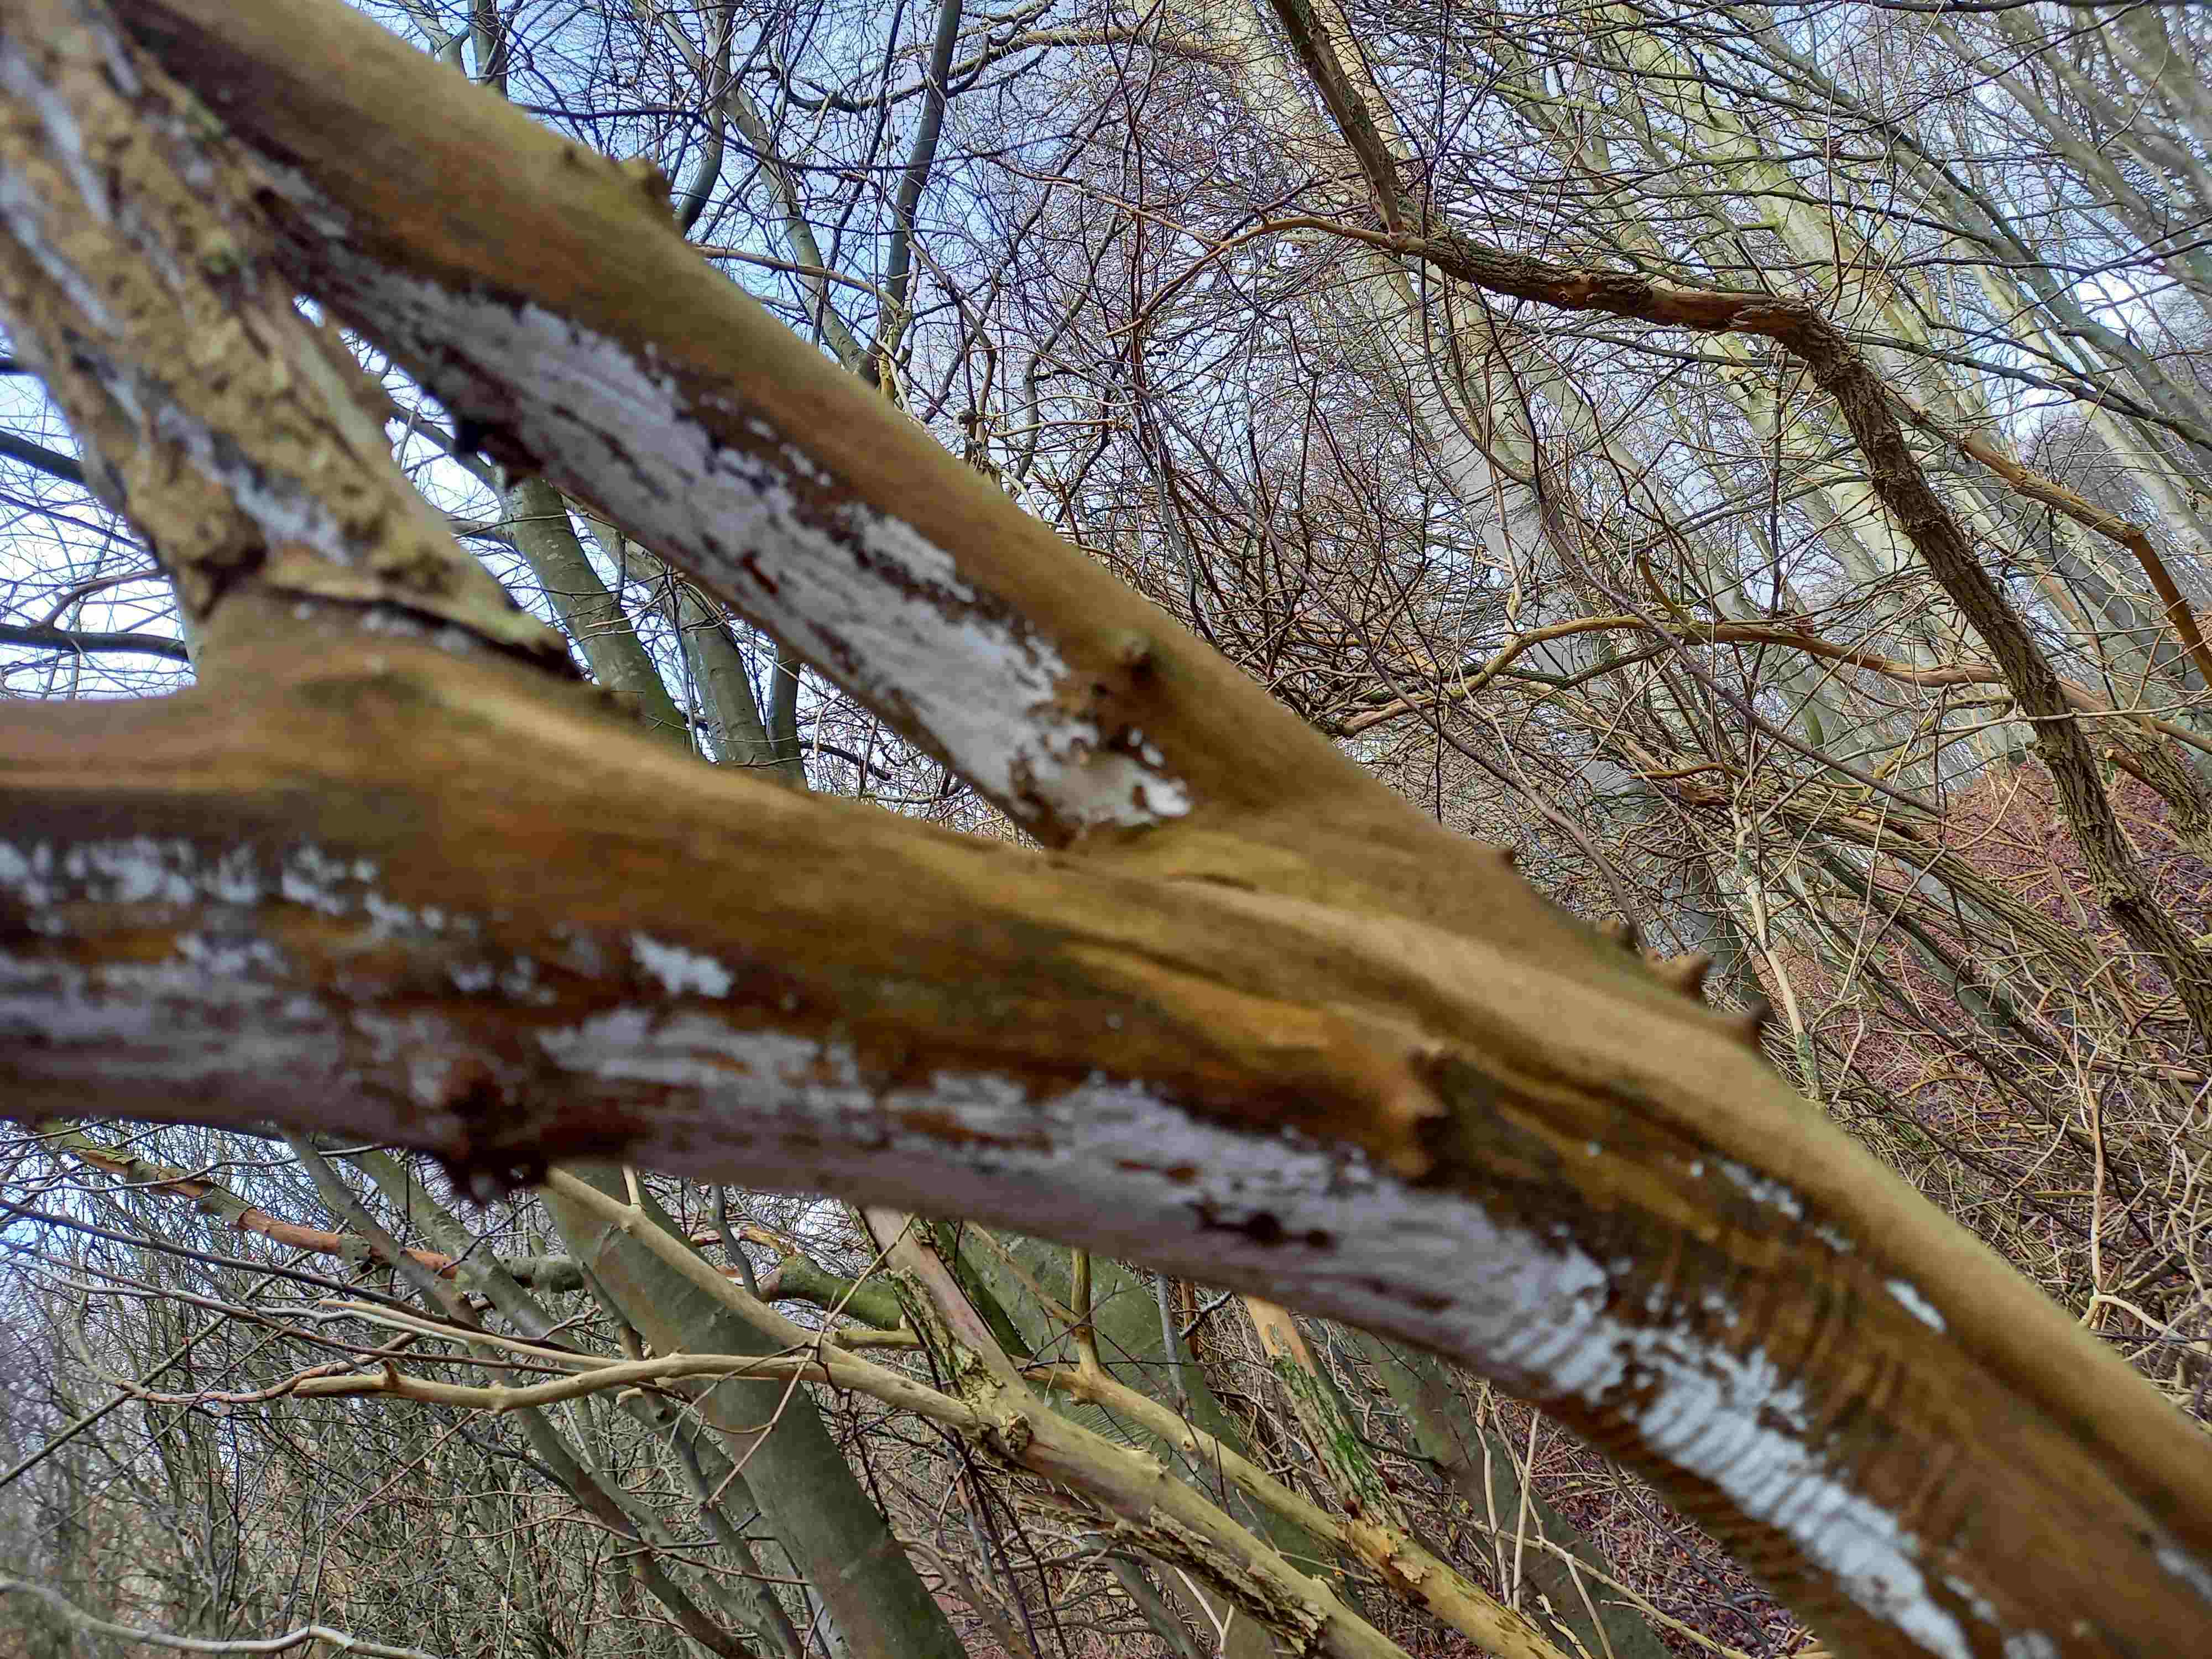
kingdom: Fungi
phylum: Basidiomycota
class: Agaricomycetes
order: Corticiales
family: Corticiaceae
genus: Lyomyces
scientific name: Lyomyces sambuci
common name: almindelig hyldehinde
